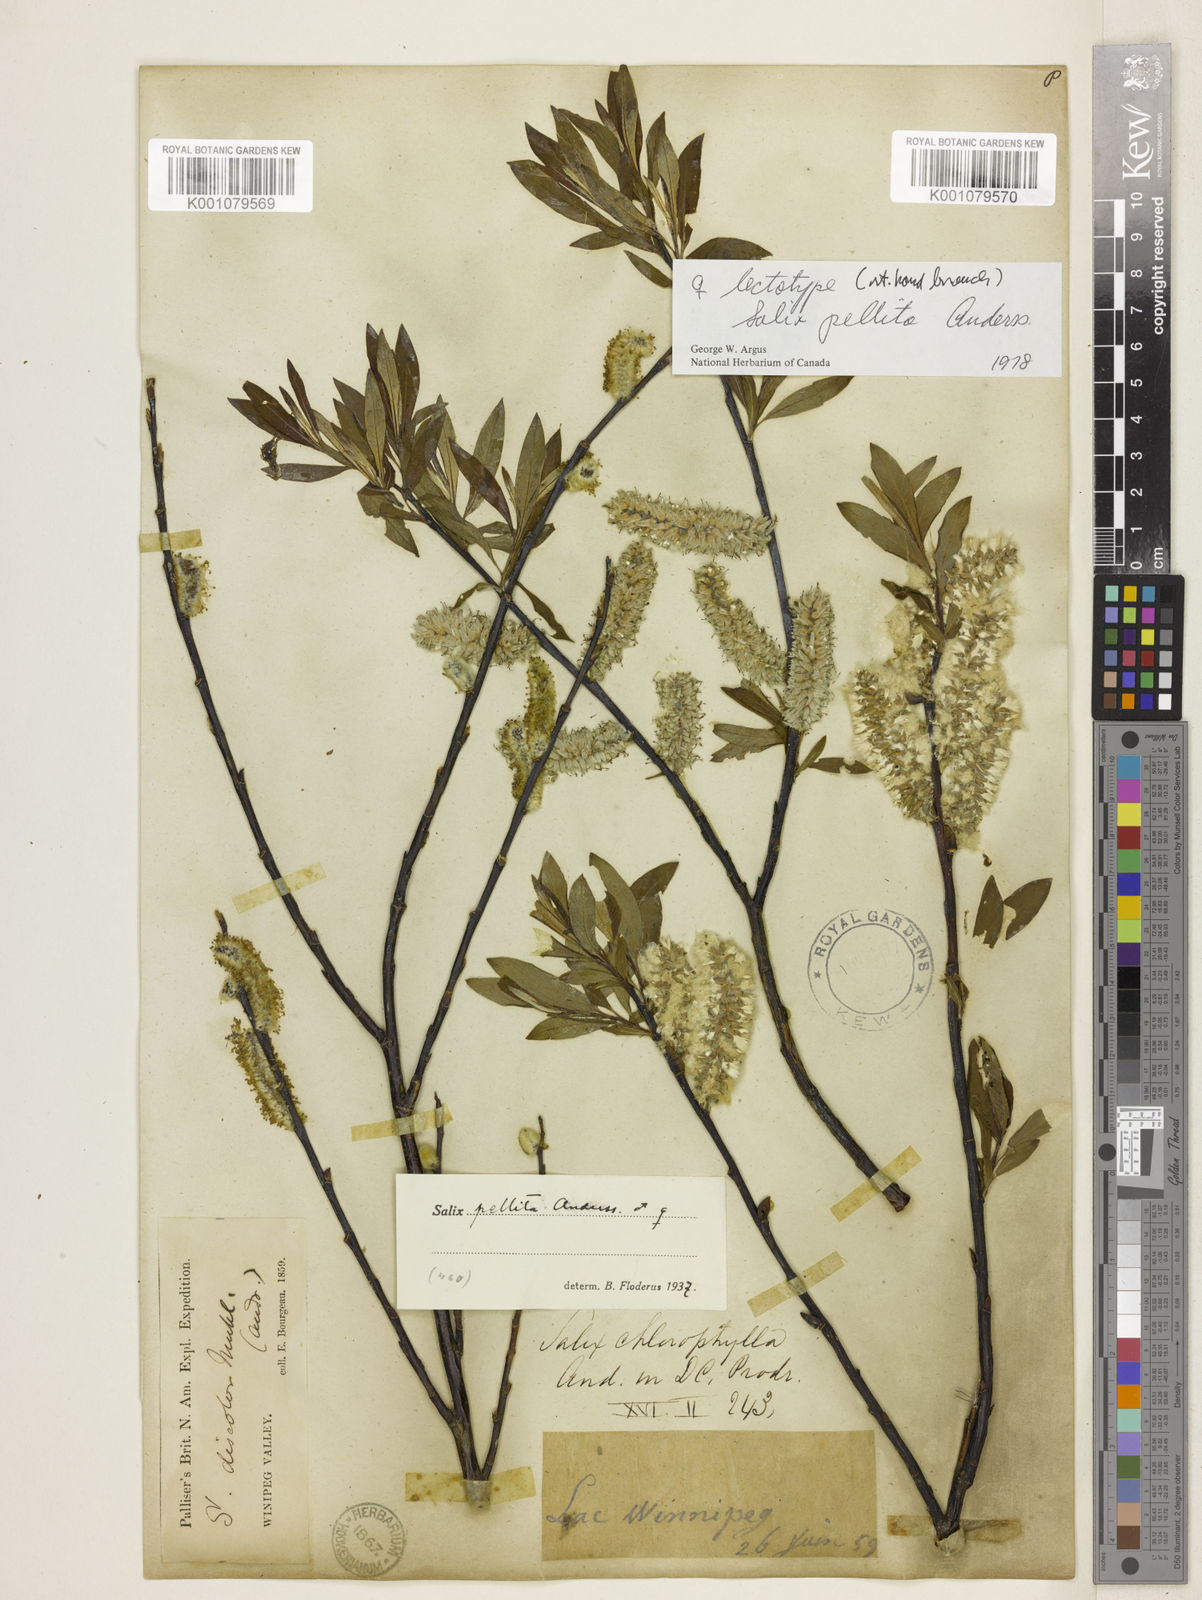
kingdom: Plantae
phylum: Tracheophyta
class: Magnoliopsida
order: Malpighiales
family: Salicaceae
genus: Salix
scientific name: Salix pellita
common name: Satiny willow
